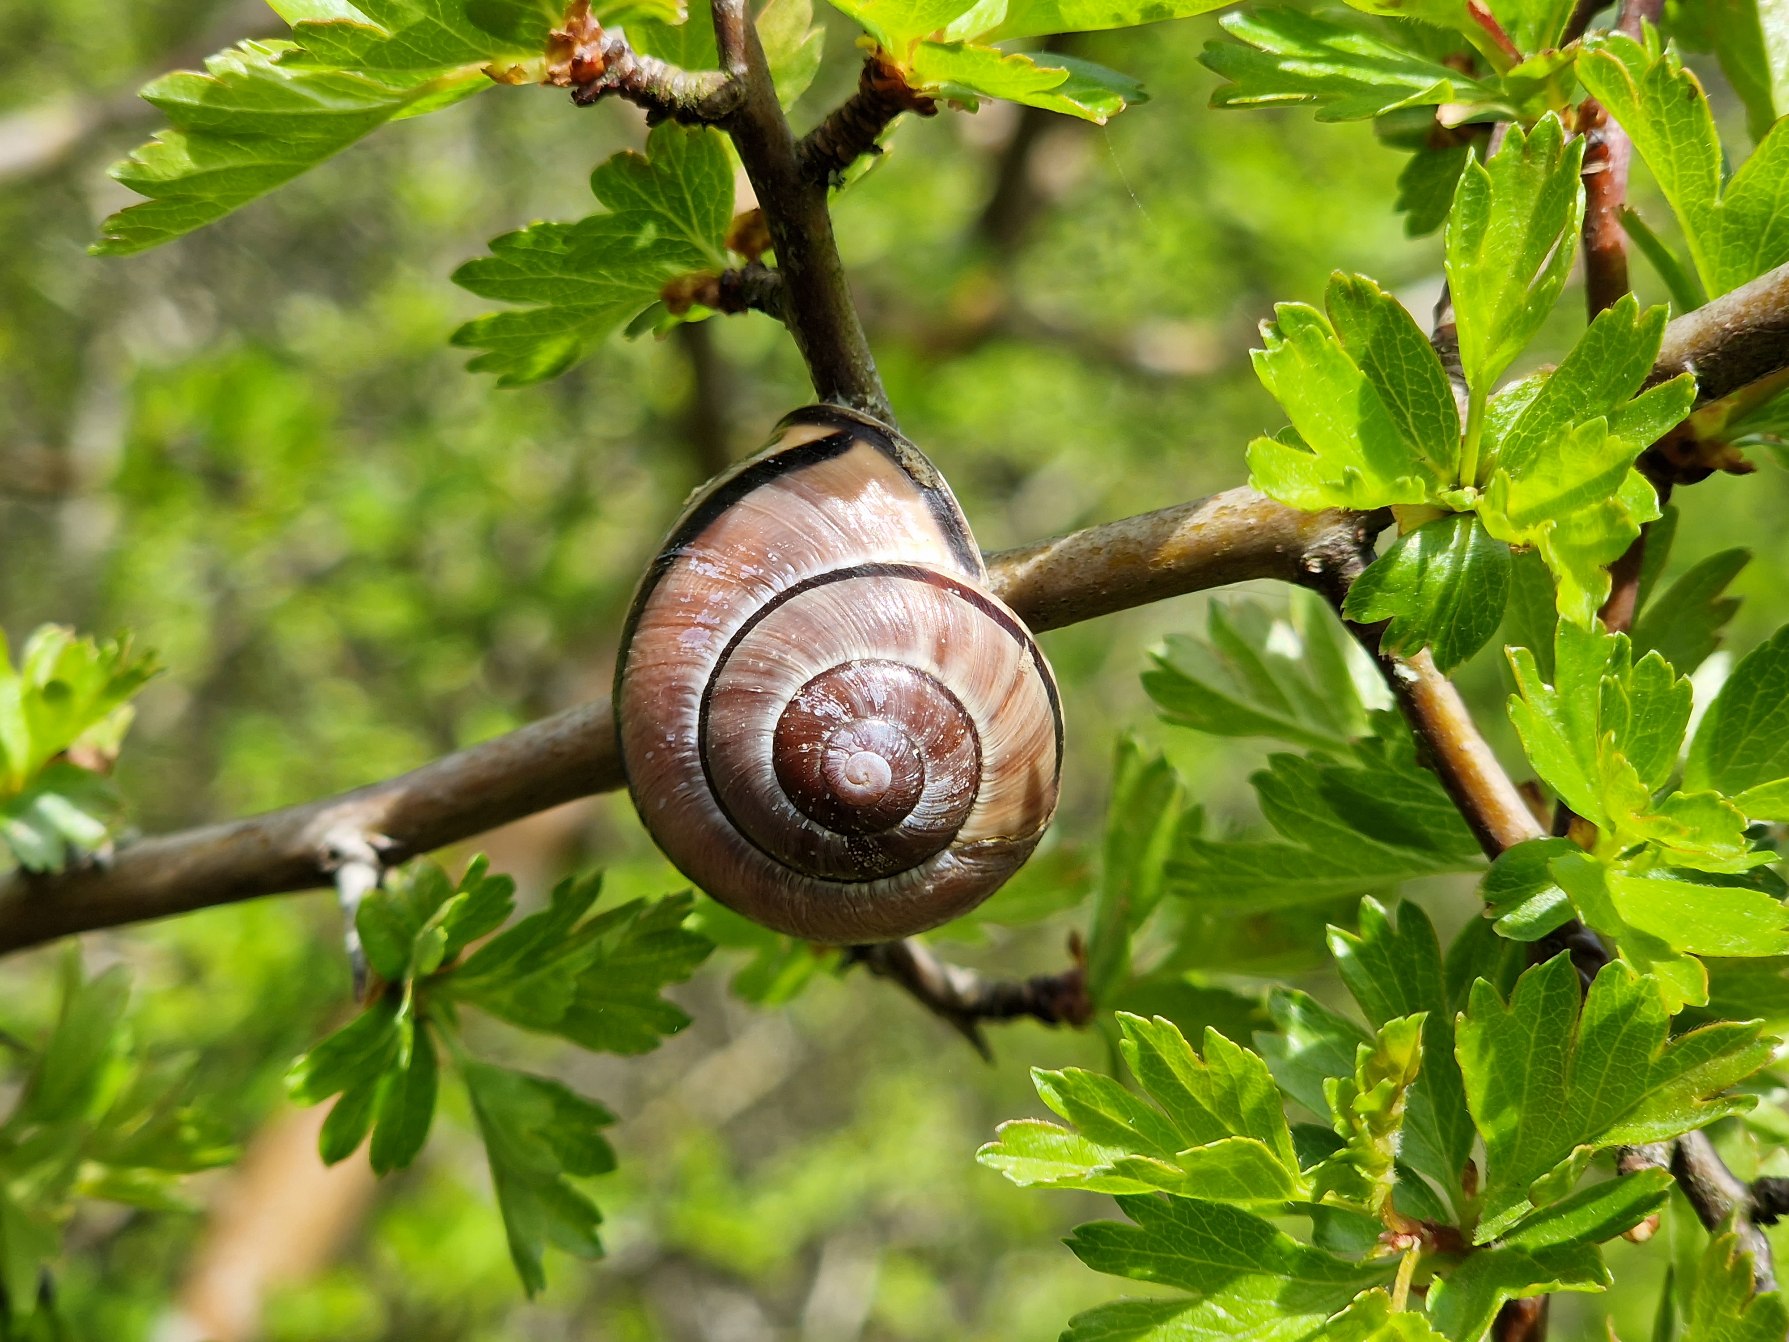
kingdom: Animalia
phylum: Mollusca
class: Gastropoda
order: Stylommatophora
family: Helicidae
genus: Cepaea
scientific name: Cepaea nemoralis
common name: Lundsnegl
